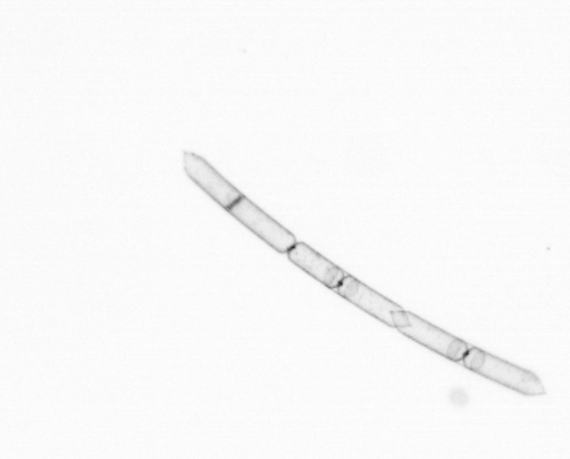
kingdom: Chromista
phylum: Ochrophyta
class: Bacillariophyceae
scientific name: Bacillariophyceae
